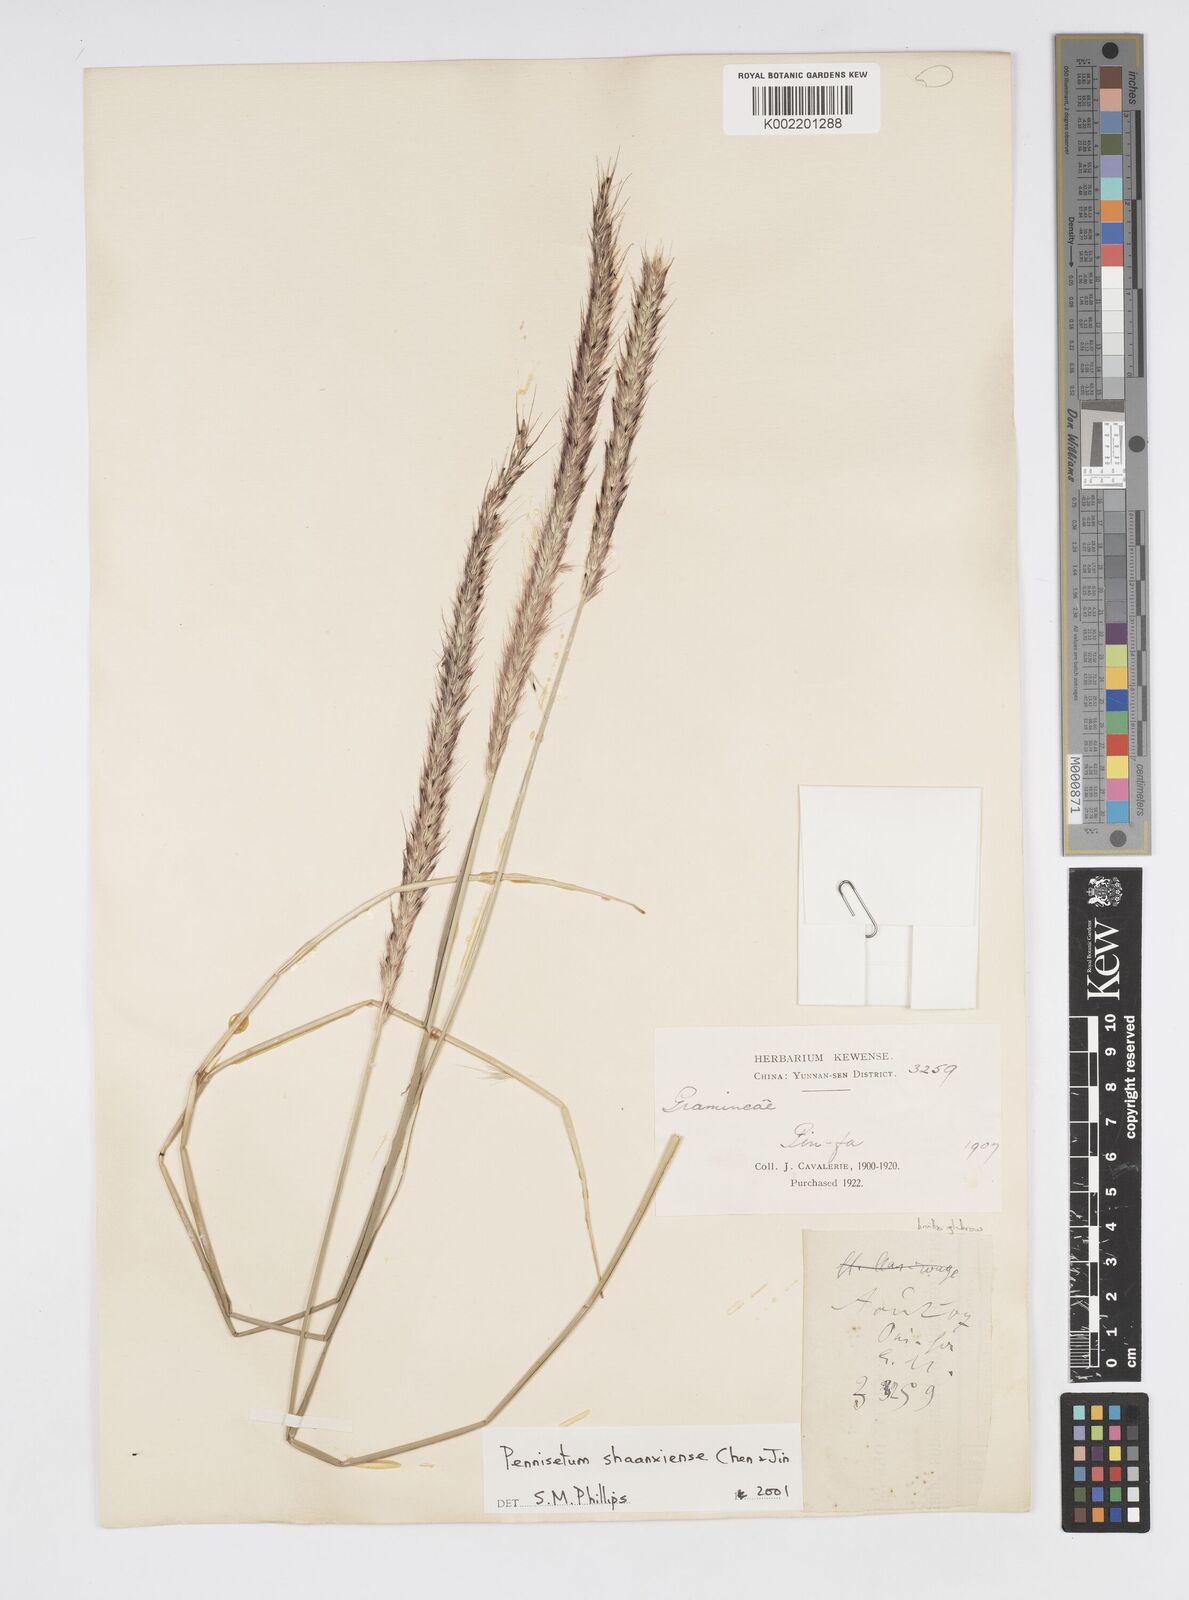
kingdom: Plantae
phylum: Tracheophyta
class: Liliopsida
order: Poales
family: Poaceae
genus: Cenchrus
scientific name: Cenchrus shaanxiensis
